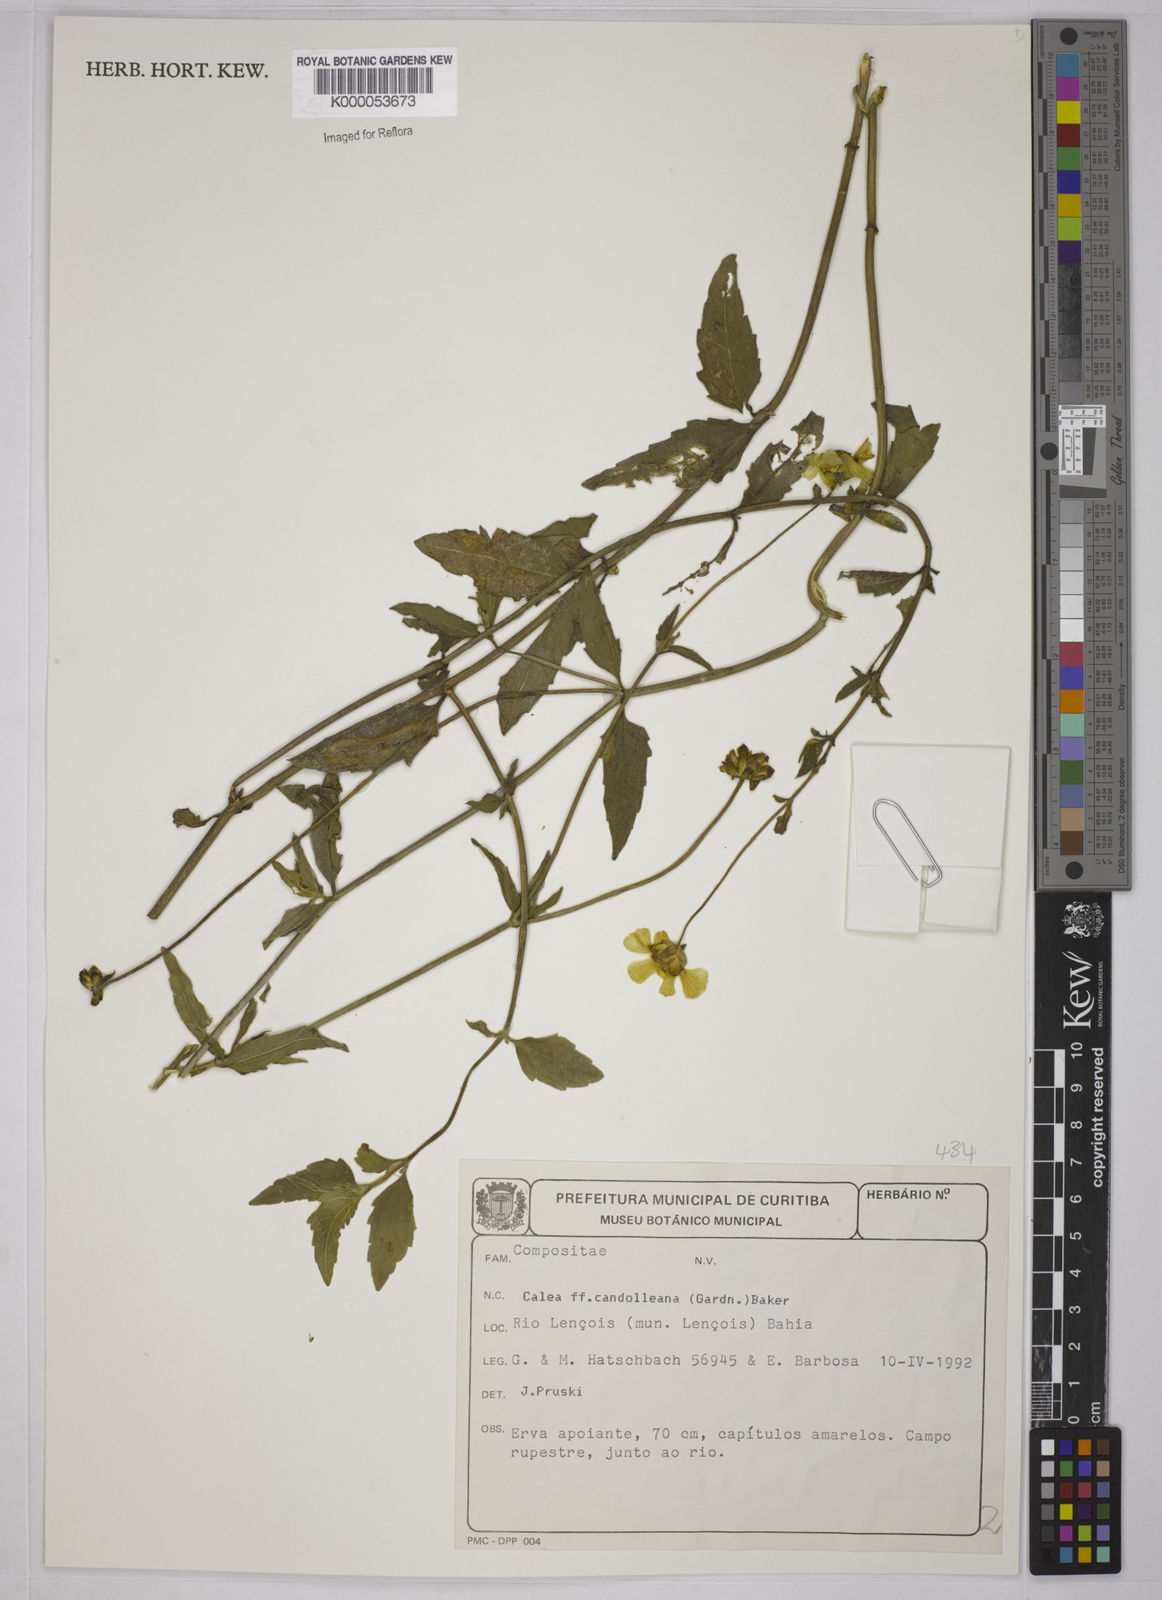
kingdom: Plantae
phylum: Tracheophyta
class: Magnoliopsida
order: Asterales
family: Asteraceae
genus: Calea
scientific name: Calea candolleana
